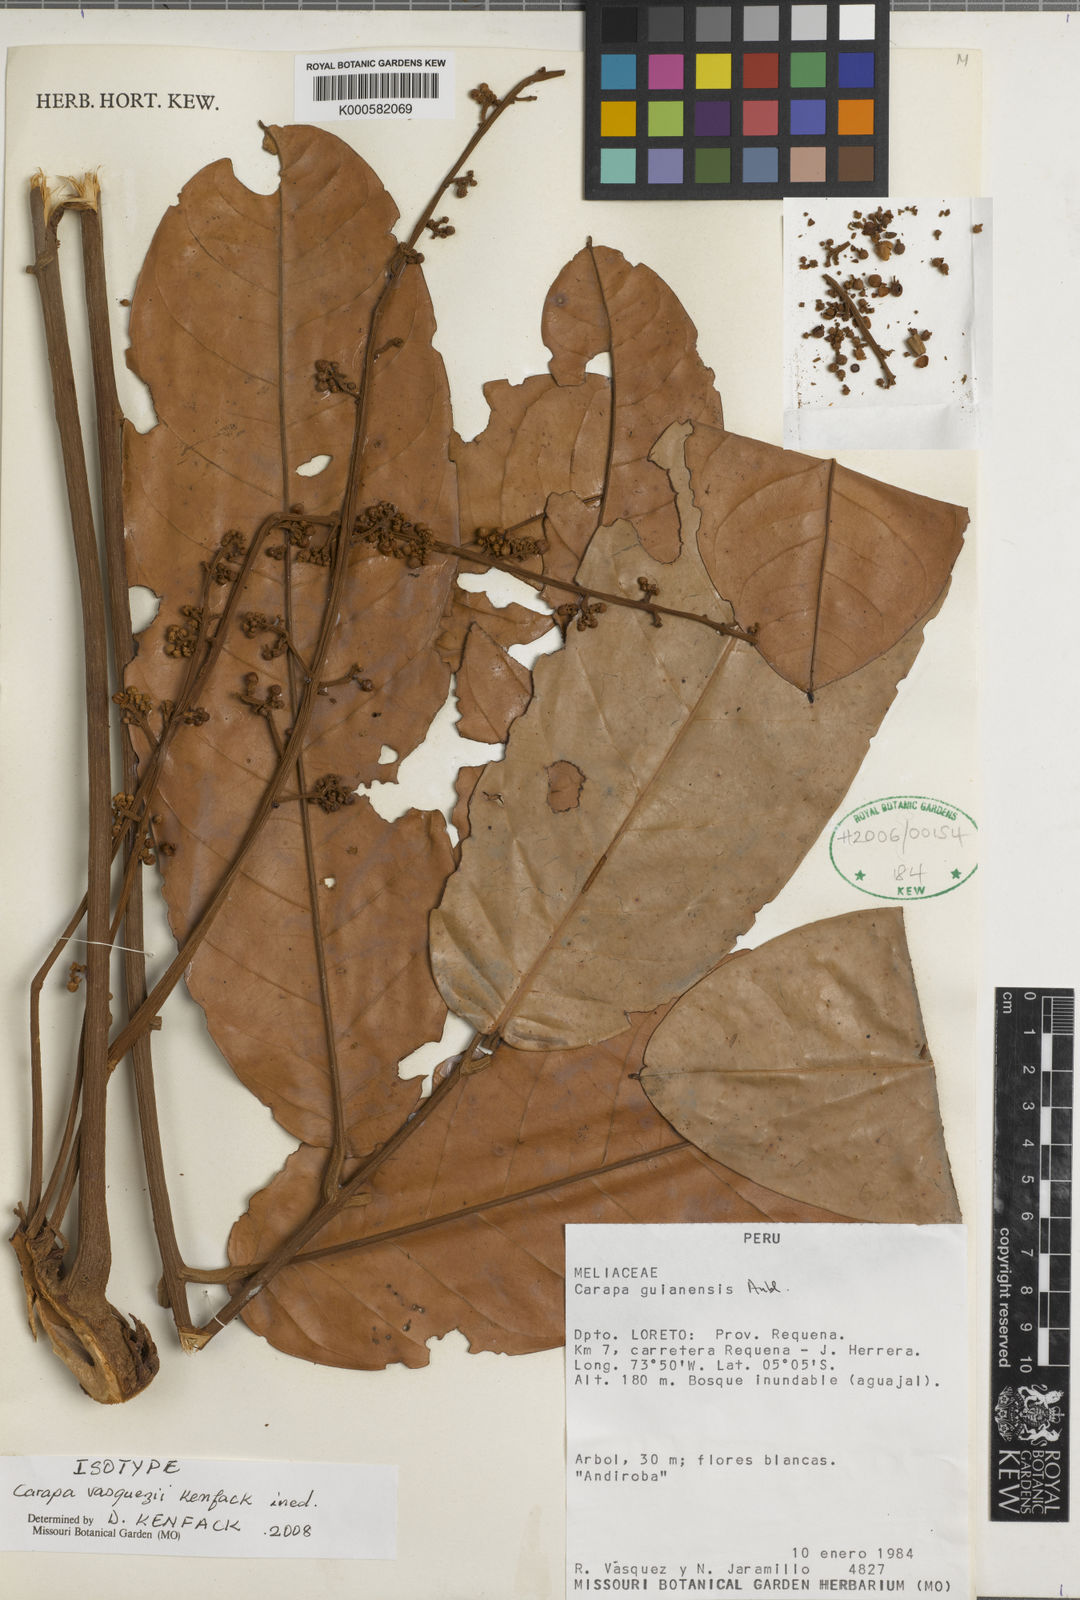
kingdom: Plantae
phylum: Tracheophyta
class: Magnoliopsida
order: Sapindales
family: Meliaceae
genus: Carapa
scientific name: Carapa vasquezii
